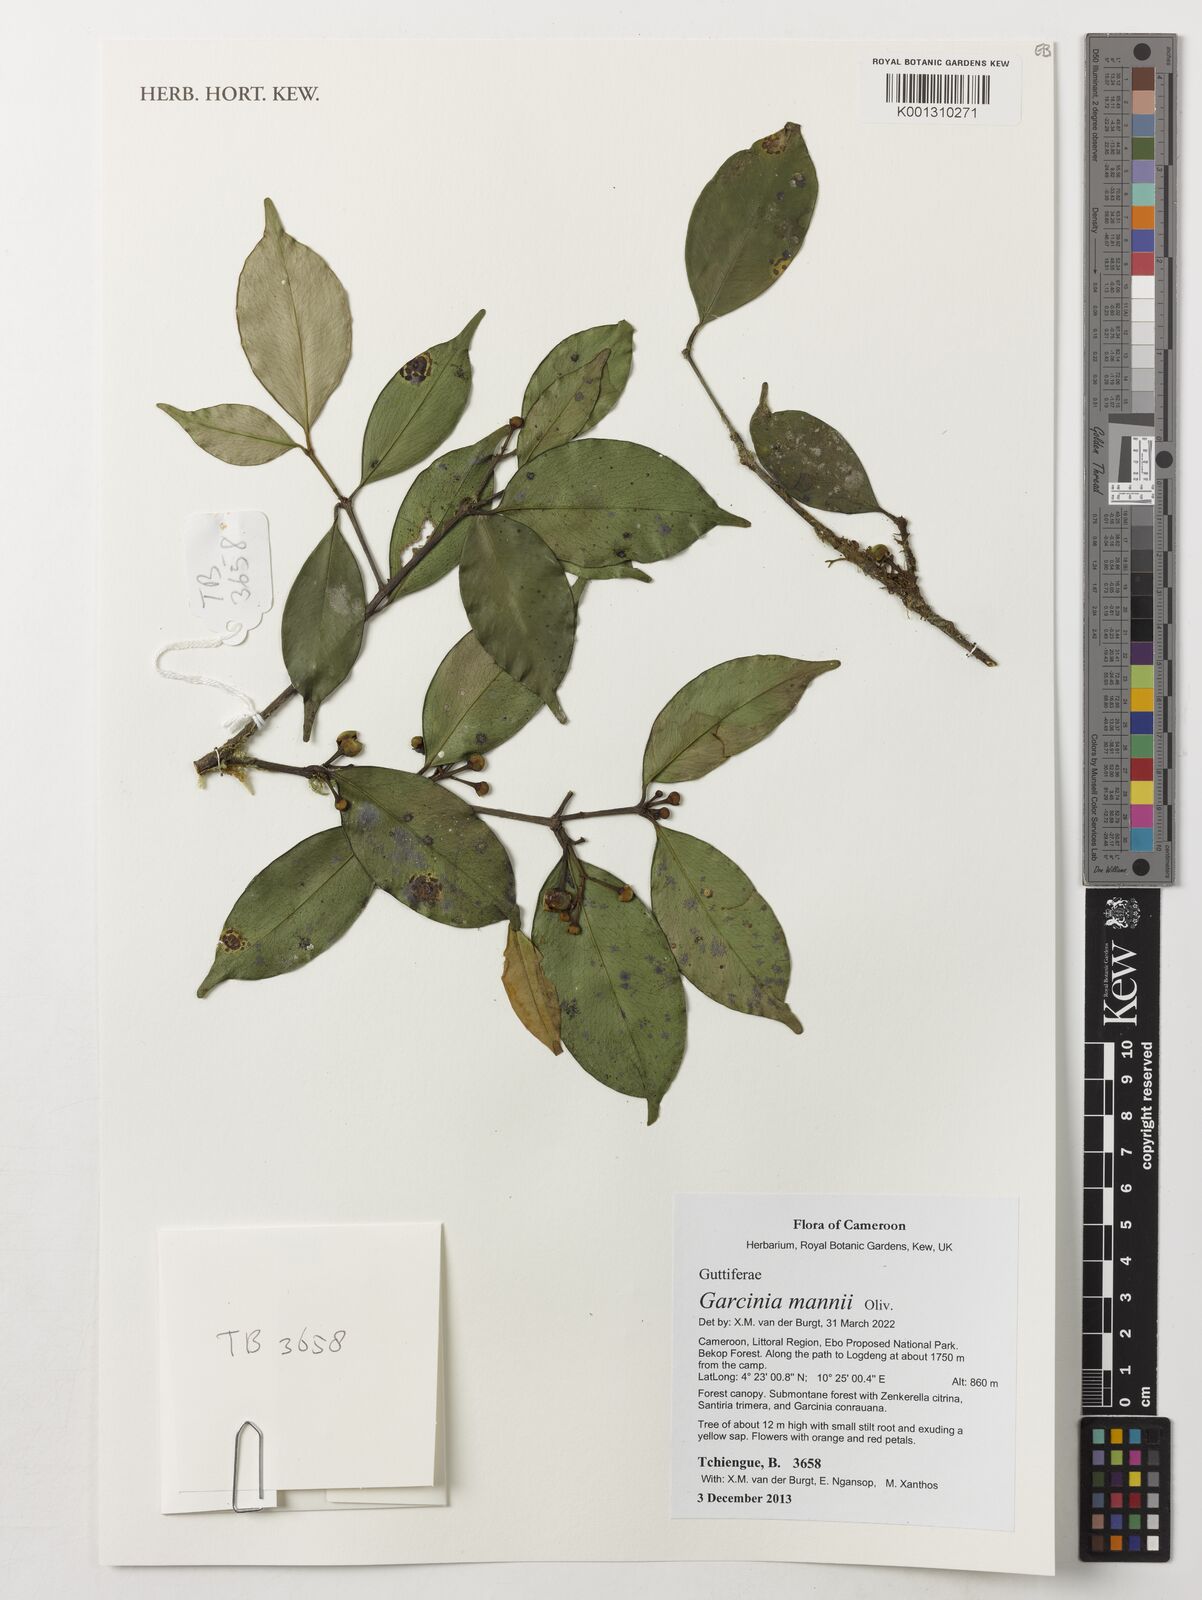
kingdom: Plantae
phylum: Tracheophyta
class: Magnoliopsida
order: Malpighiales
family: Clusiaceae
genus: Garcinia
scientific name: Garcinia mannii
